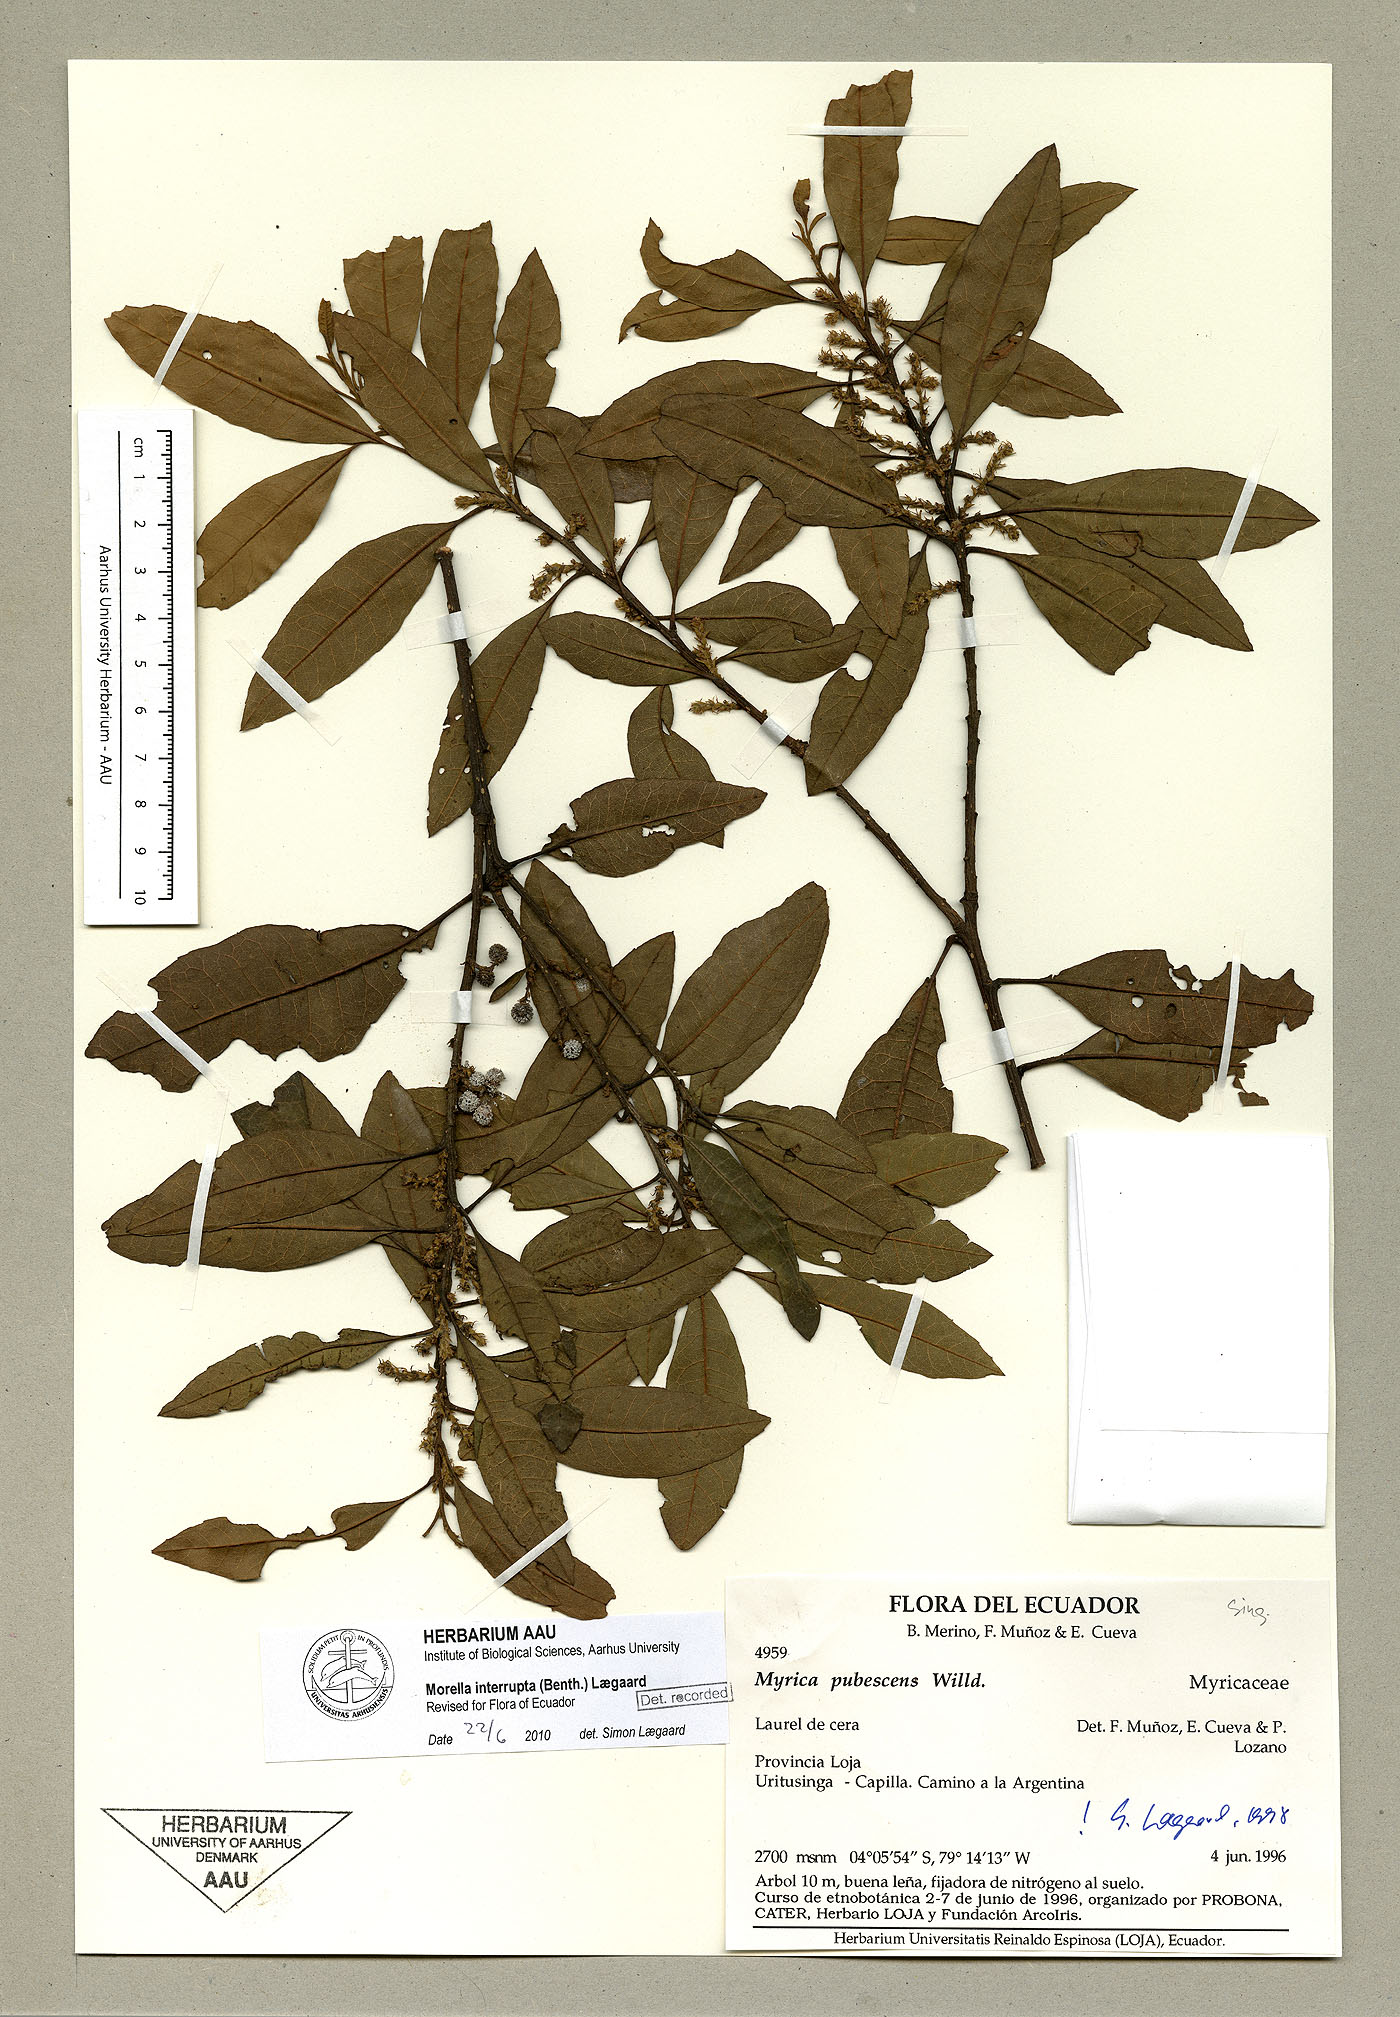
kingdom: Plantae
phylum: Tracheophyta
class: Magnoliopsida
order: Fagales
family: Myricaceae
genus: Morella
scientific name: Morella interrupta
